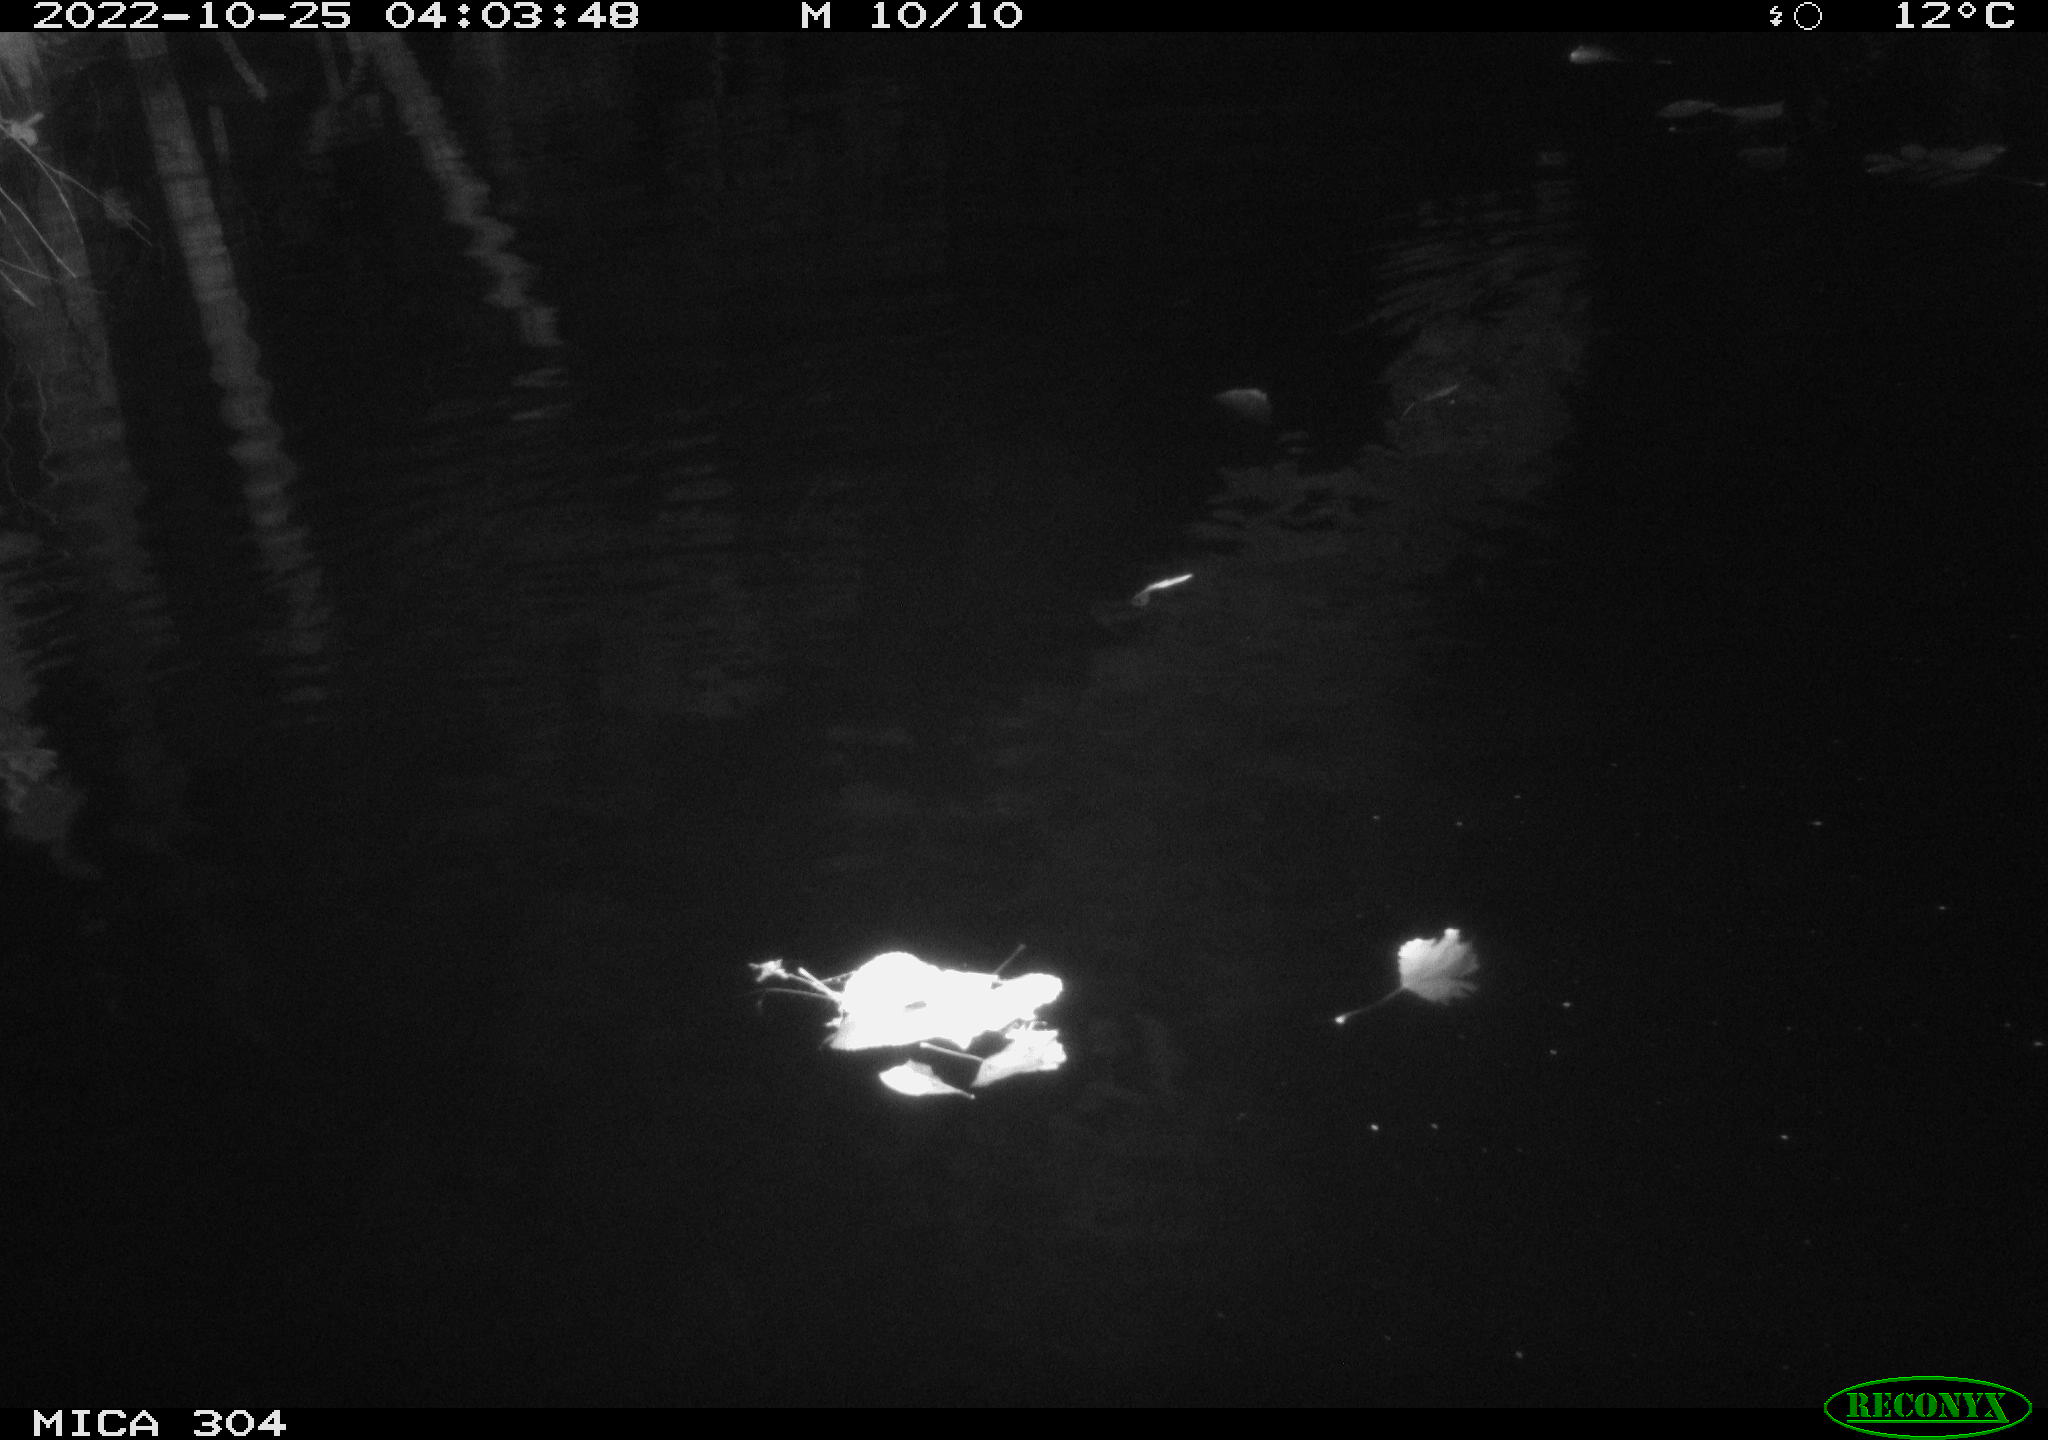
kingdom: Animalia
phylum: Chordata
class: Mammalia
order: Rodentia
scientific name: Rodentia
